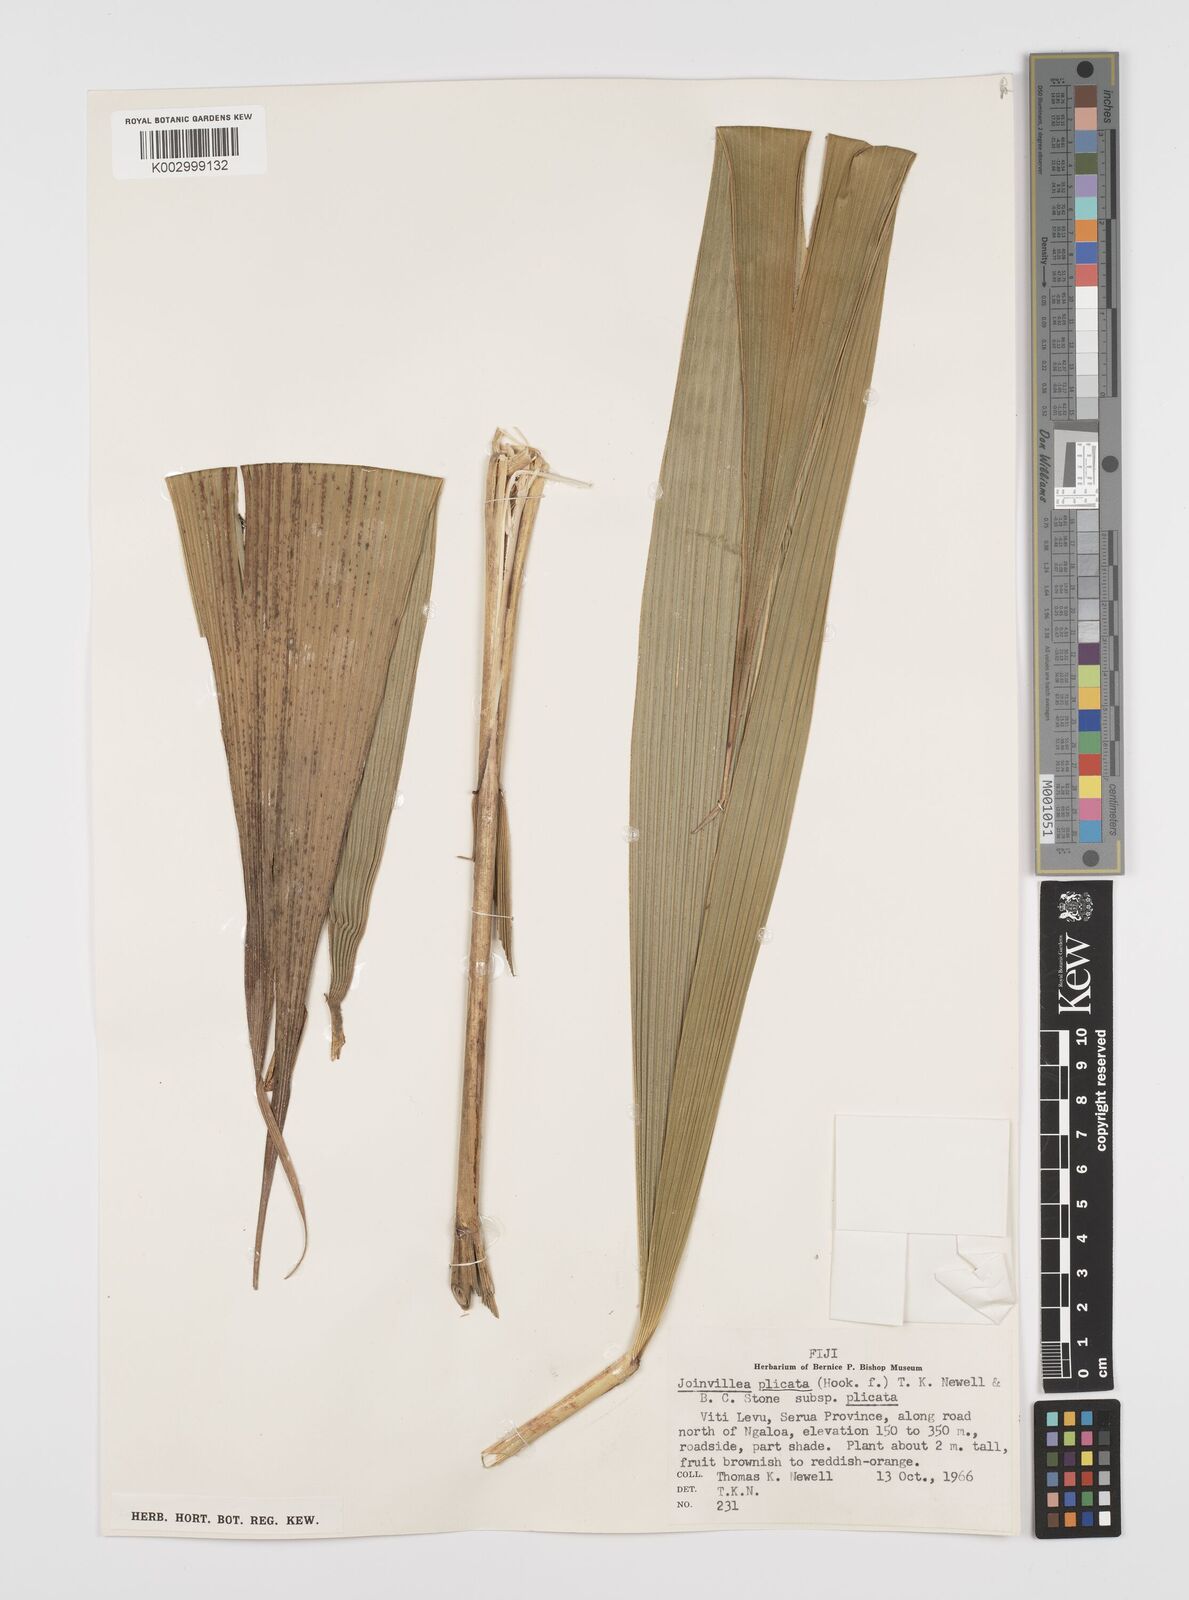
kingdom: Plantae
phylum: Tracheophyta
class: Liliopsida
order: Poales
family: Joinvilleaceae
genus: Joinvillea
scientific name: Joinvillea plicata
